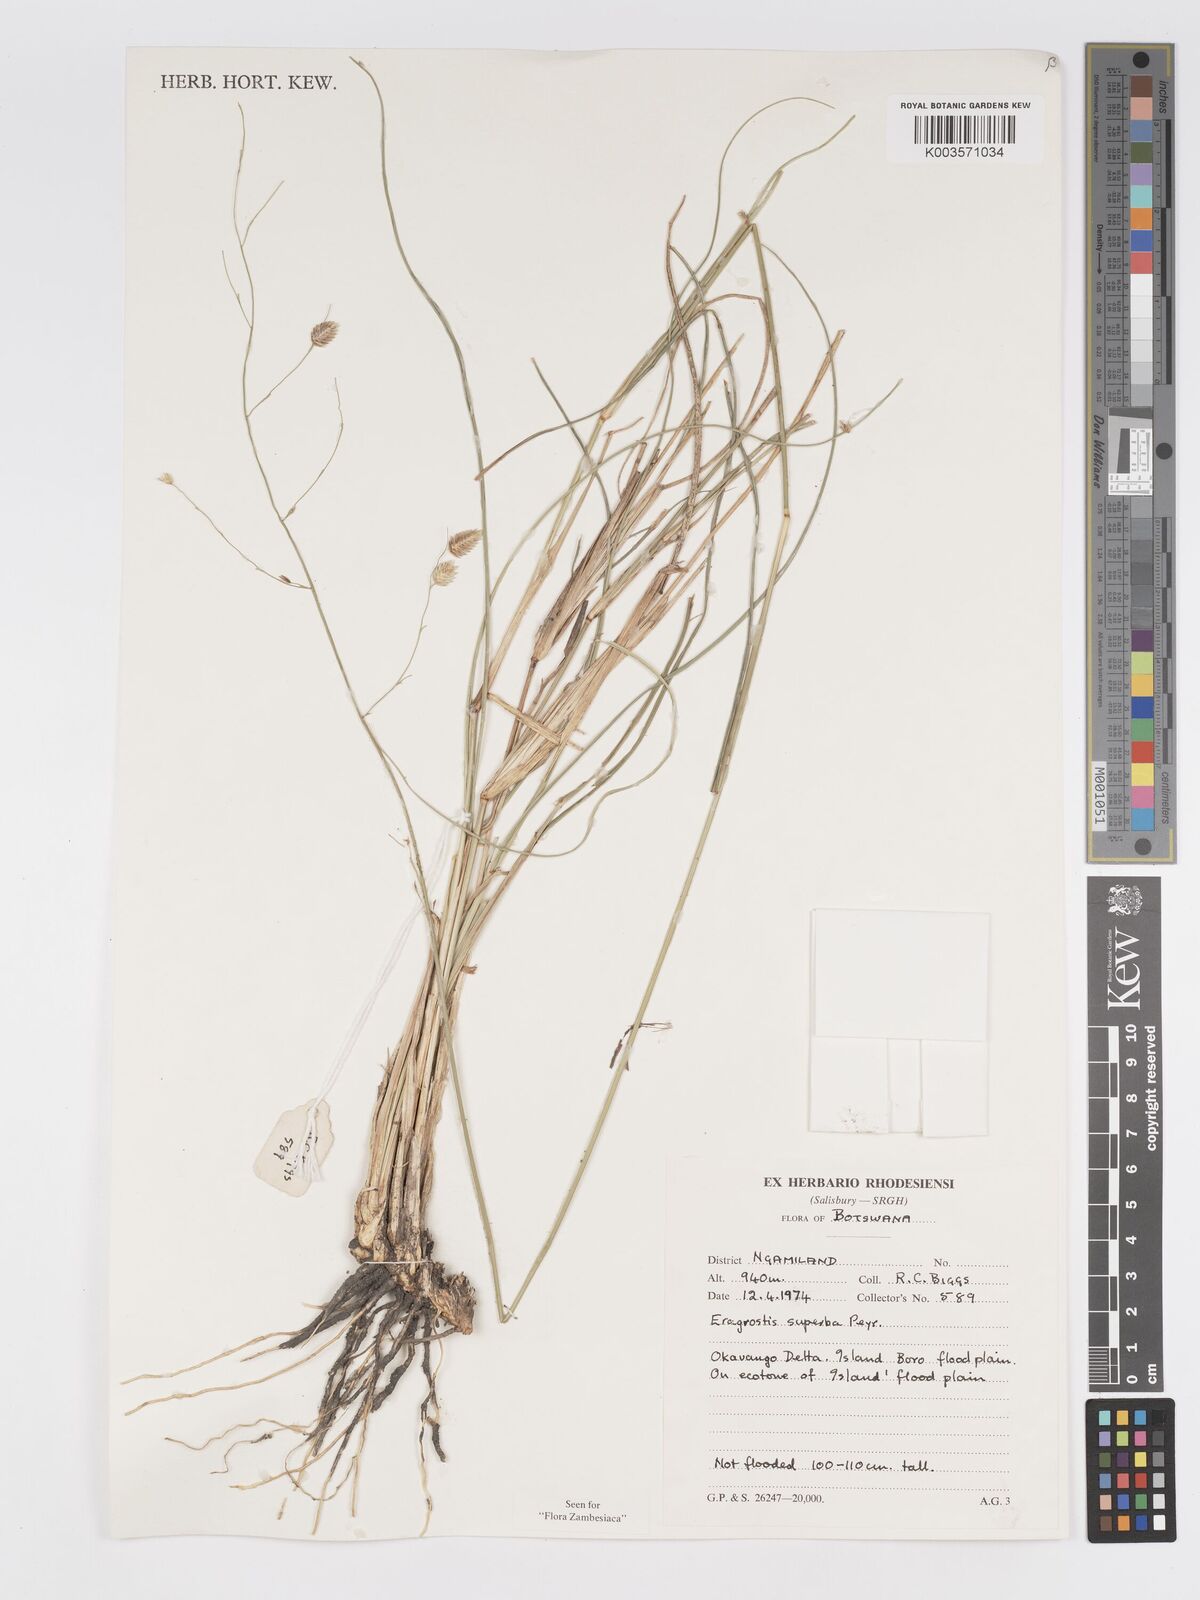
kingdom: Plantae
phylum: Tracheophyta
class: Liliopsida
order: Poales
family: Poaceae
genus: Eragrostis
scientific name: Eragrostis superba
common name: Wilman lovegrass
